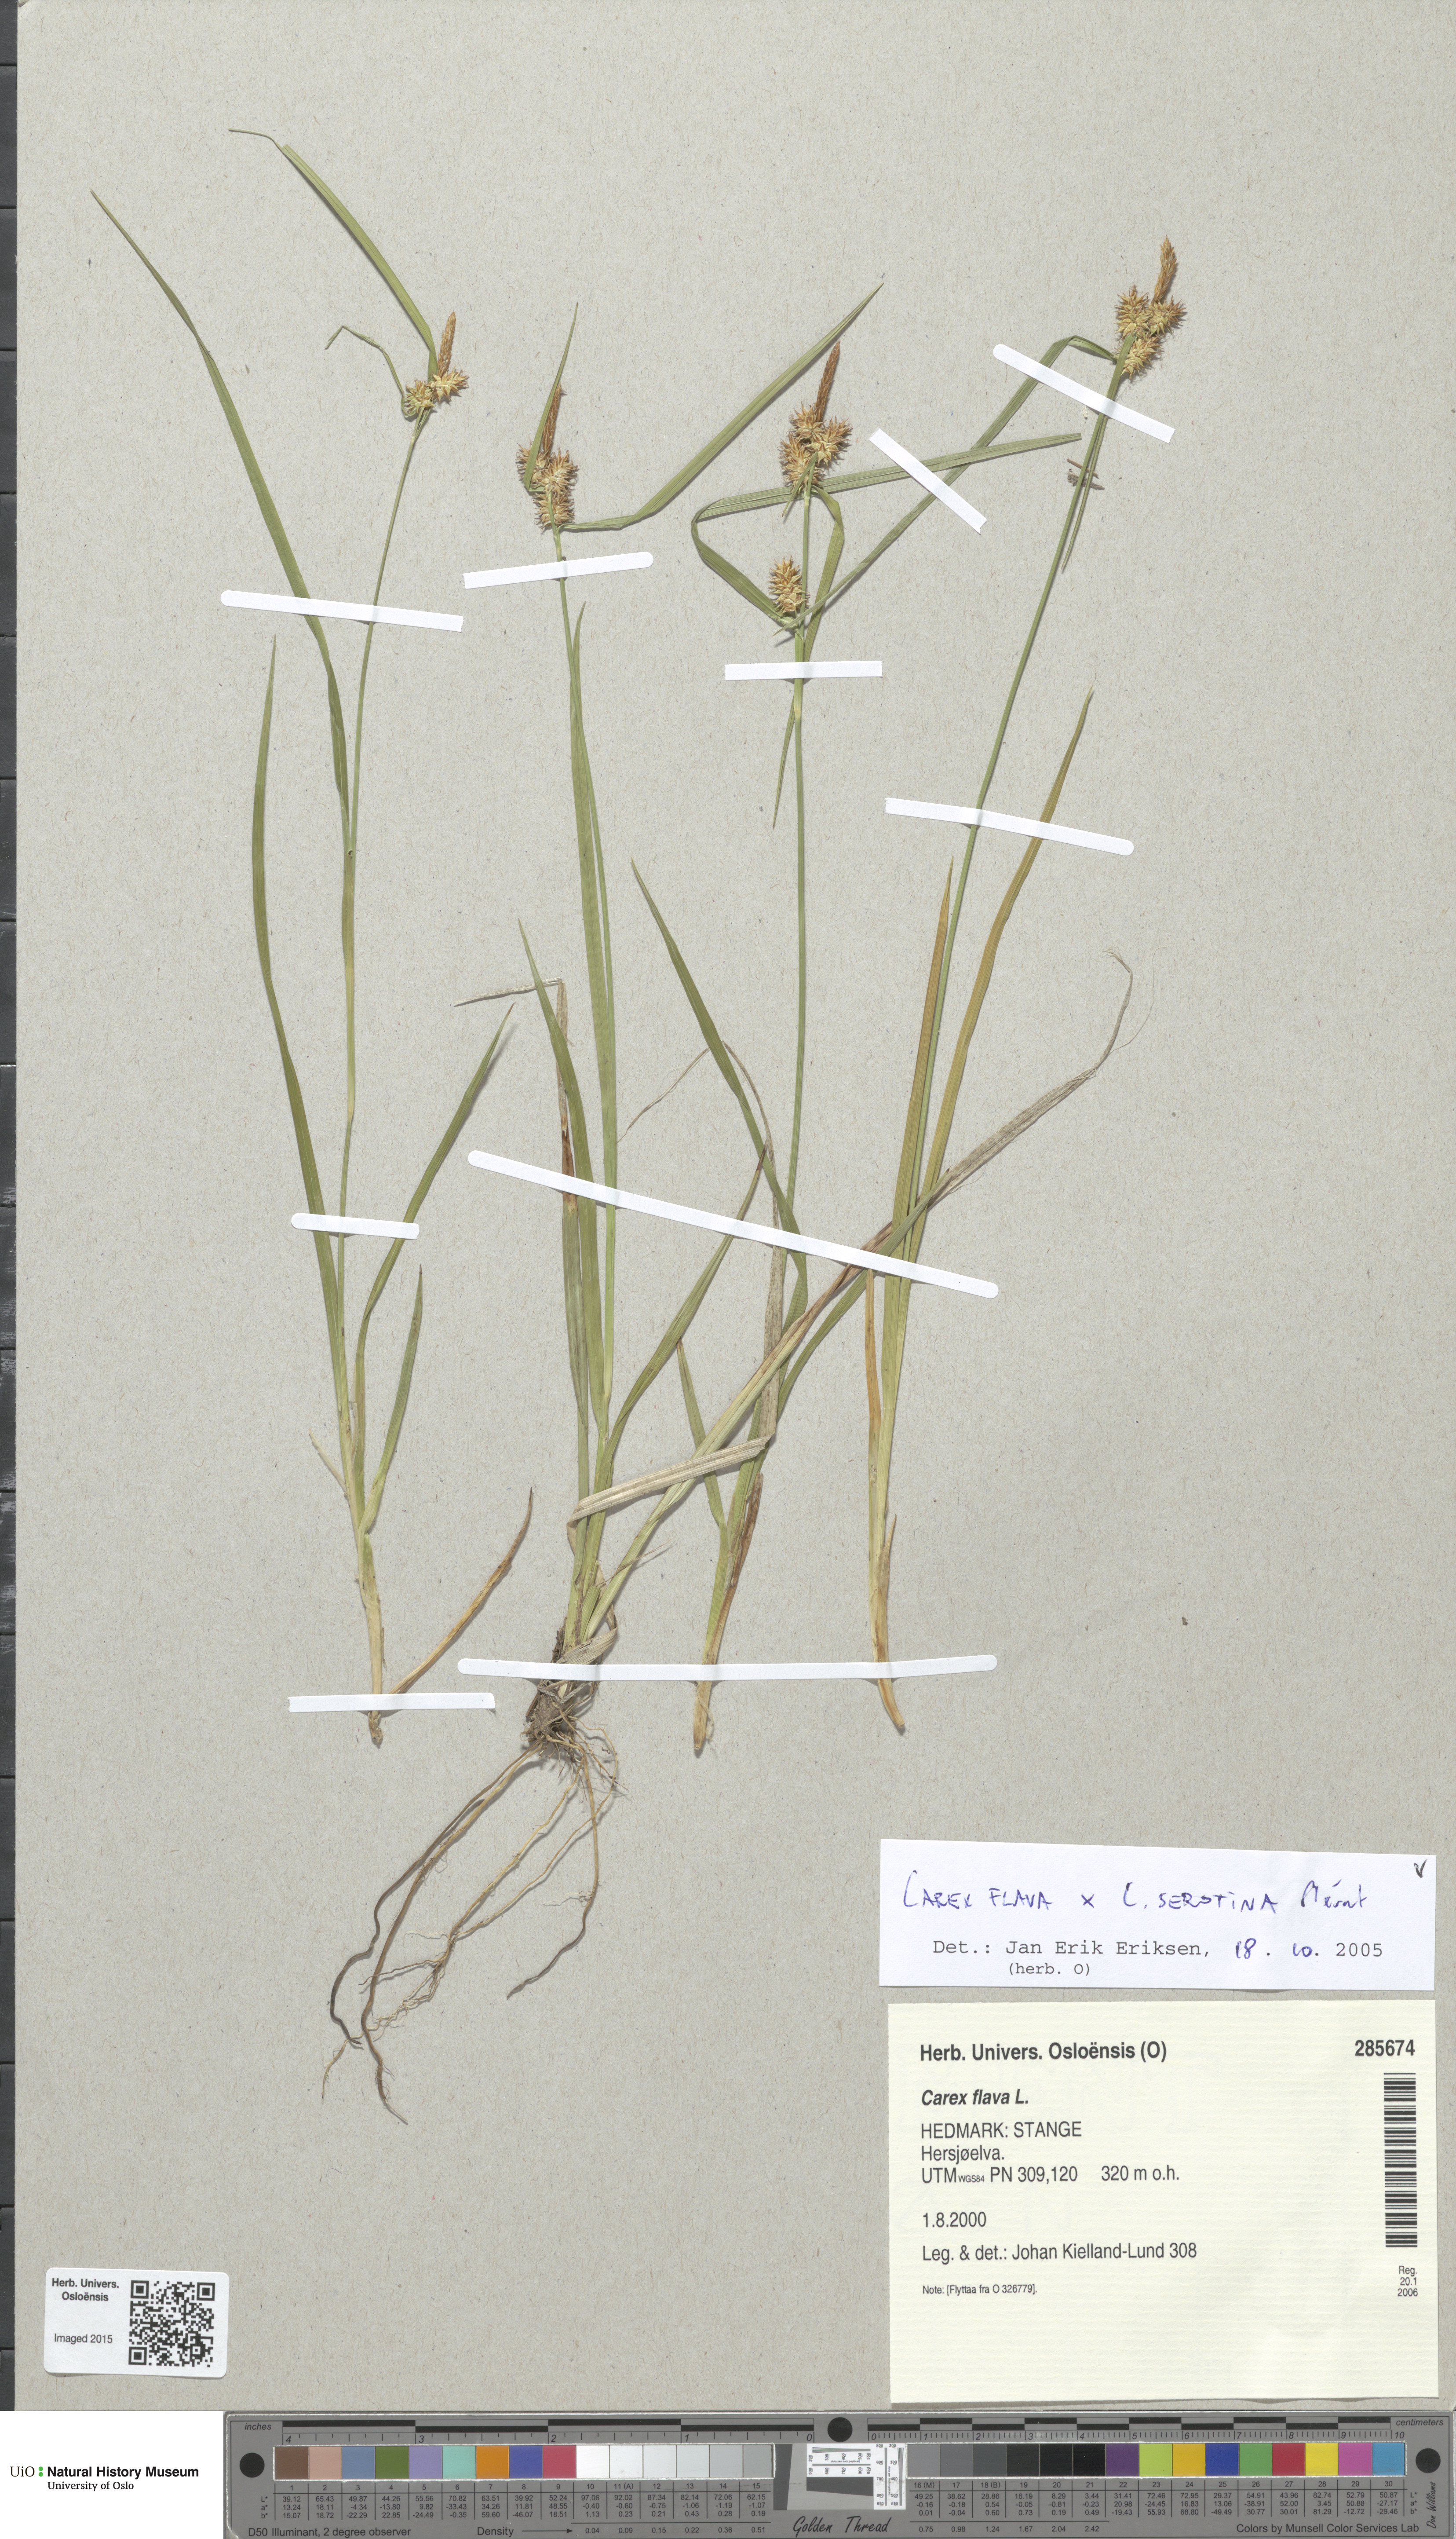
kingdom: Plantae
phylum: Tracheophyta
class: Liliopsida
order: Poales
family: Cyperaceae
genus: Carex
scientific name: Carex
